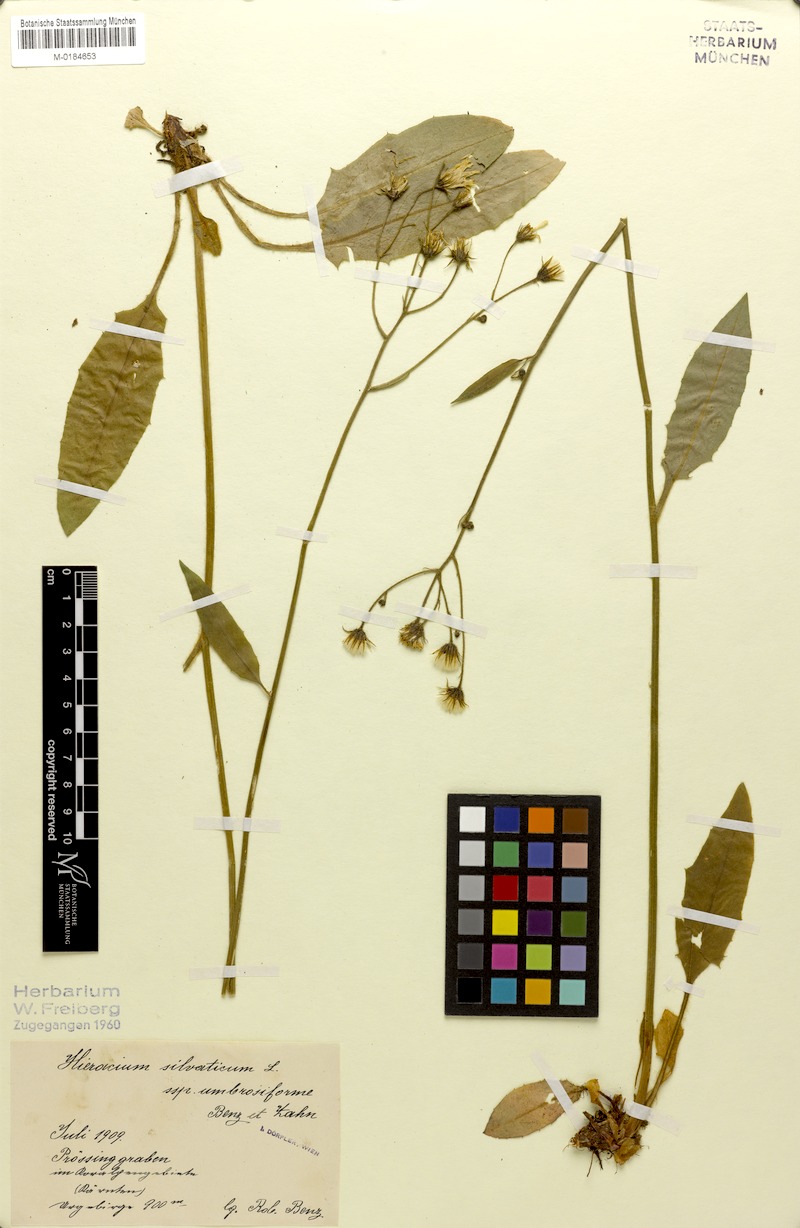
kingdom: Plantae
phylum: Tracheophyta
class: Magnoliopsida
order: Asterales
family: Asteraceae
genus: Hieracium
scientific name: Hieracium rotundatum
